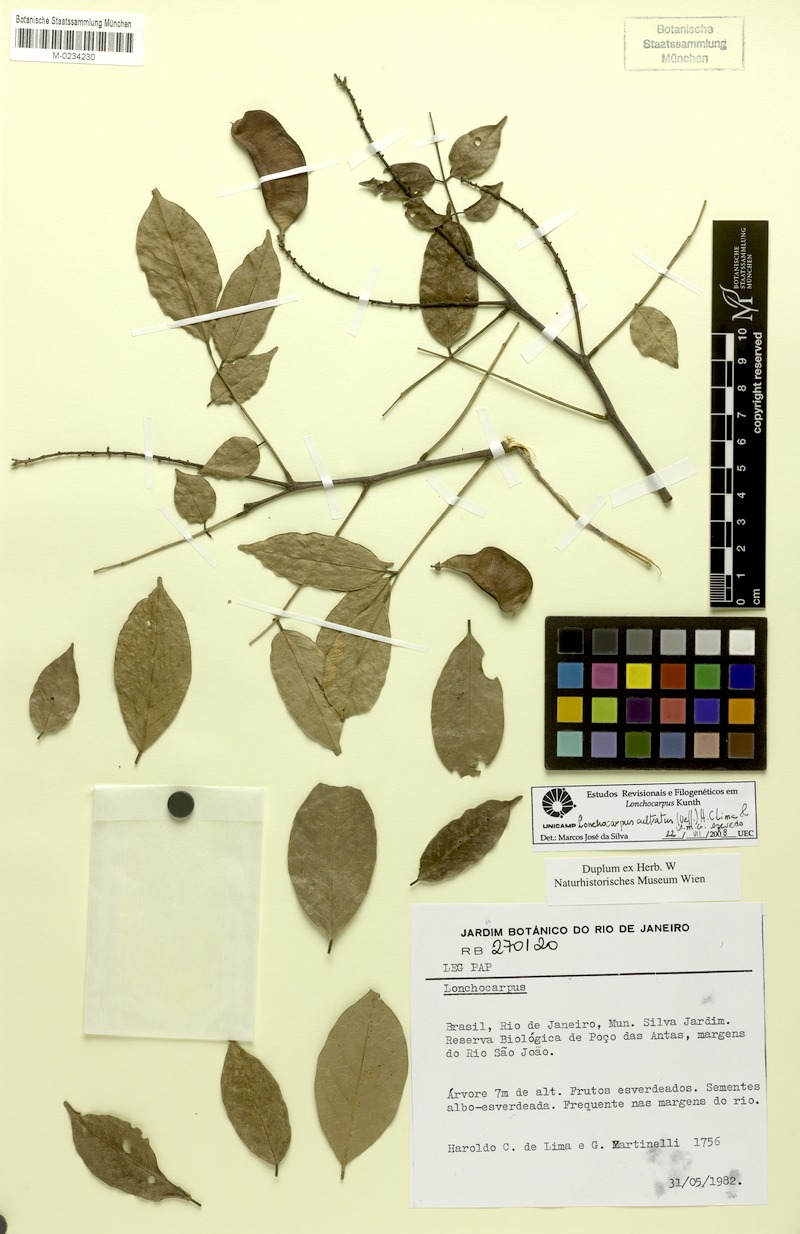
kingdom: Plantae
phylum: Tracheophyta
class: Magnoliopsida
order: Fabales
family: Fabaceae
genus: Lonchocarpus
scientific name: Lonchocarpus cultratus
